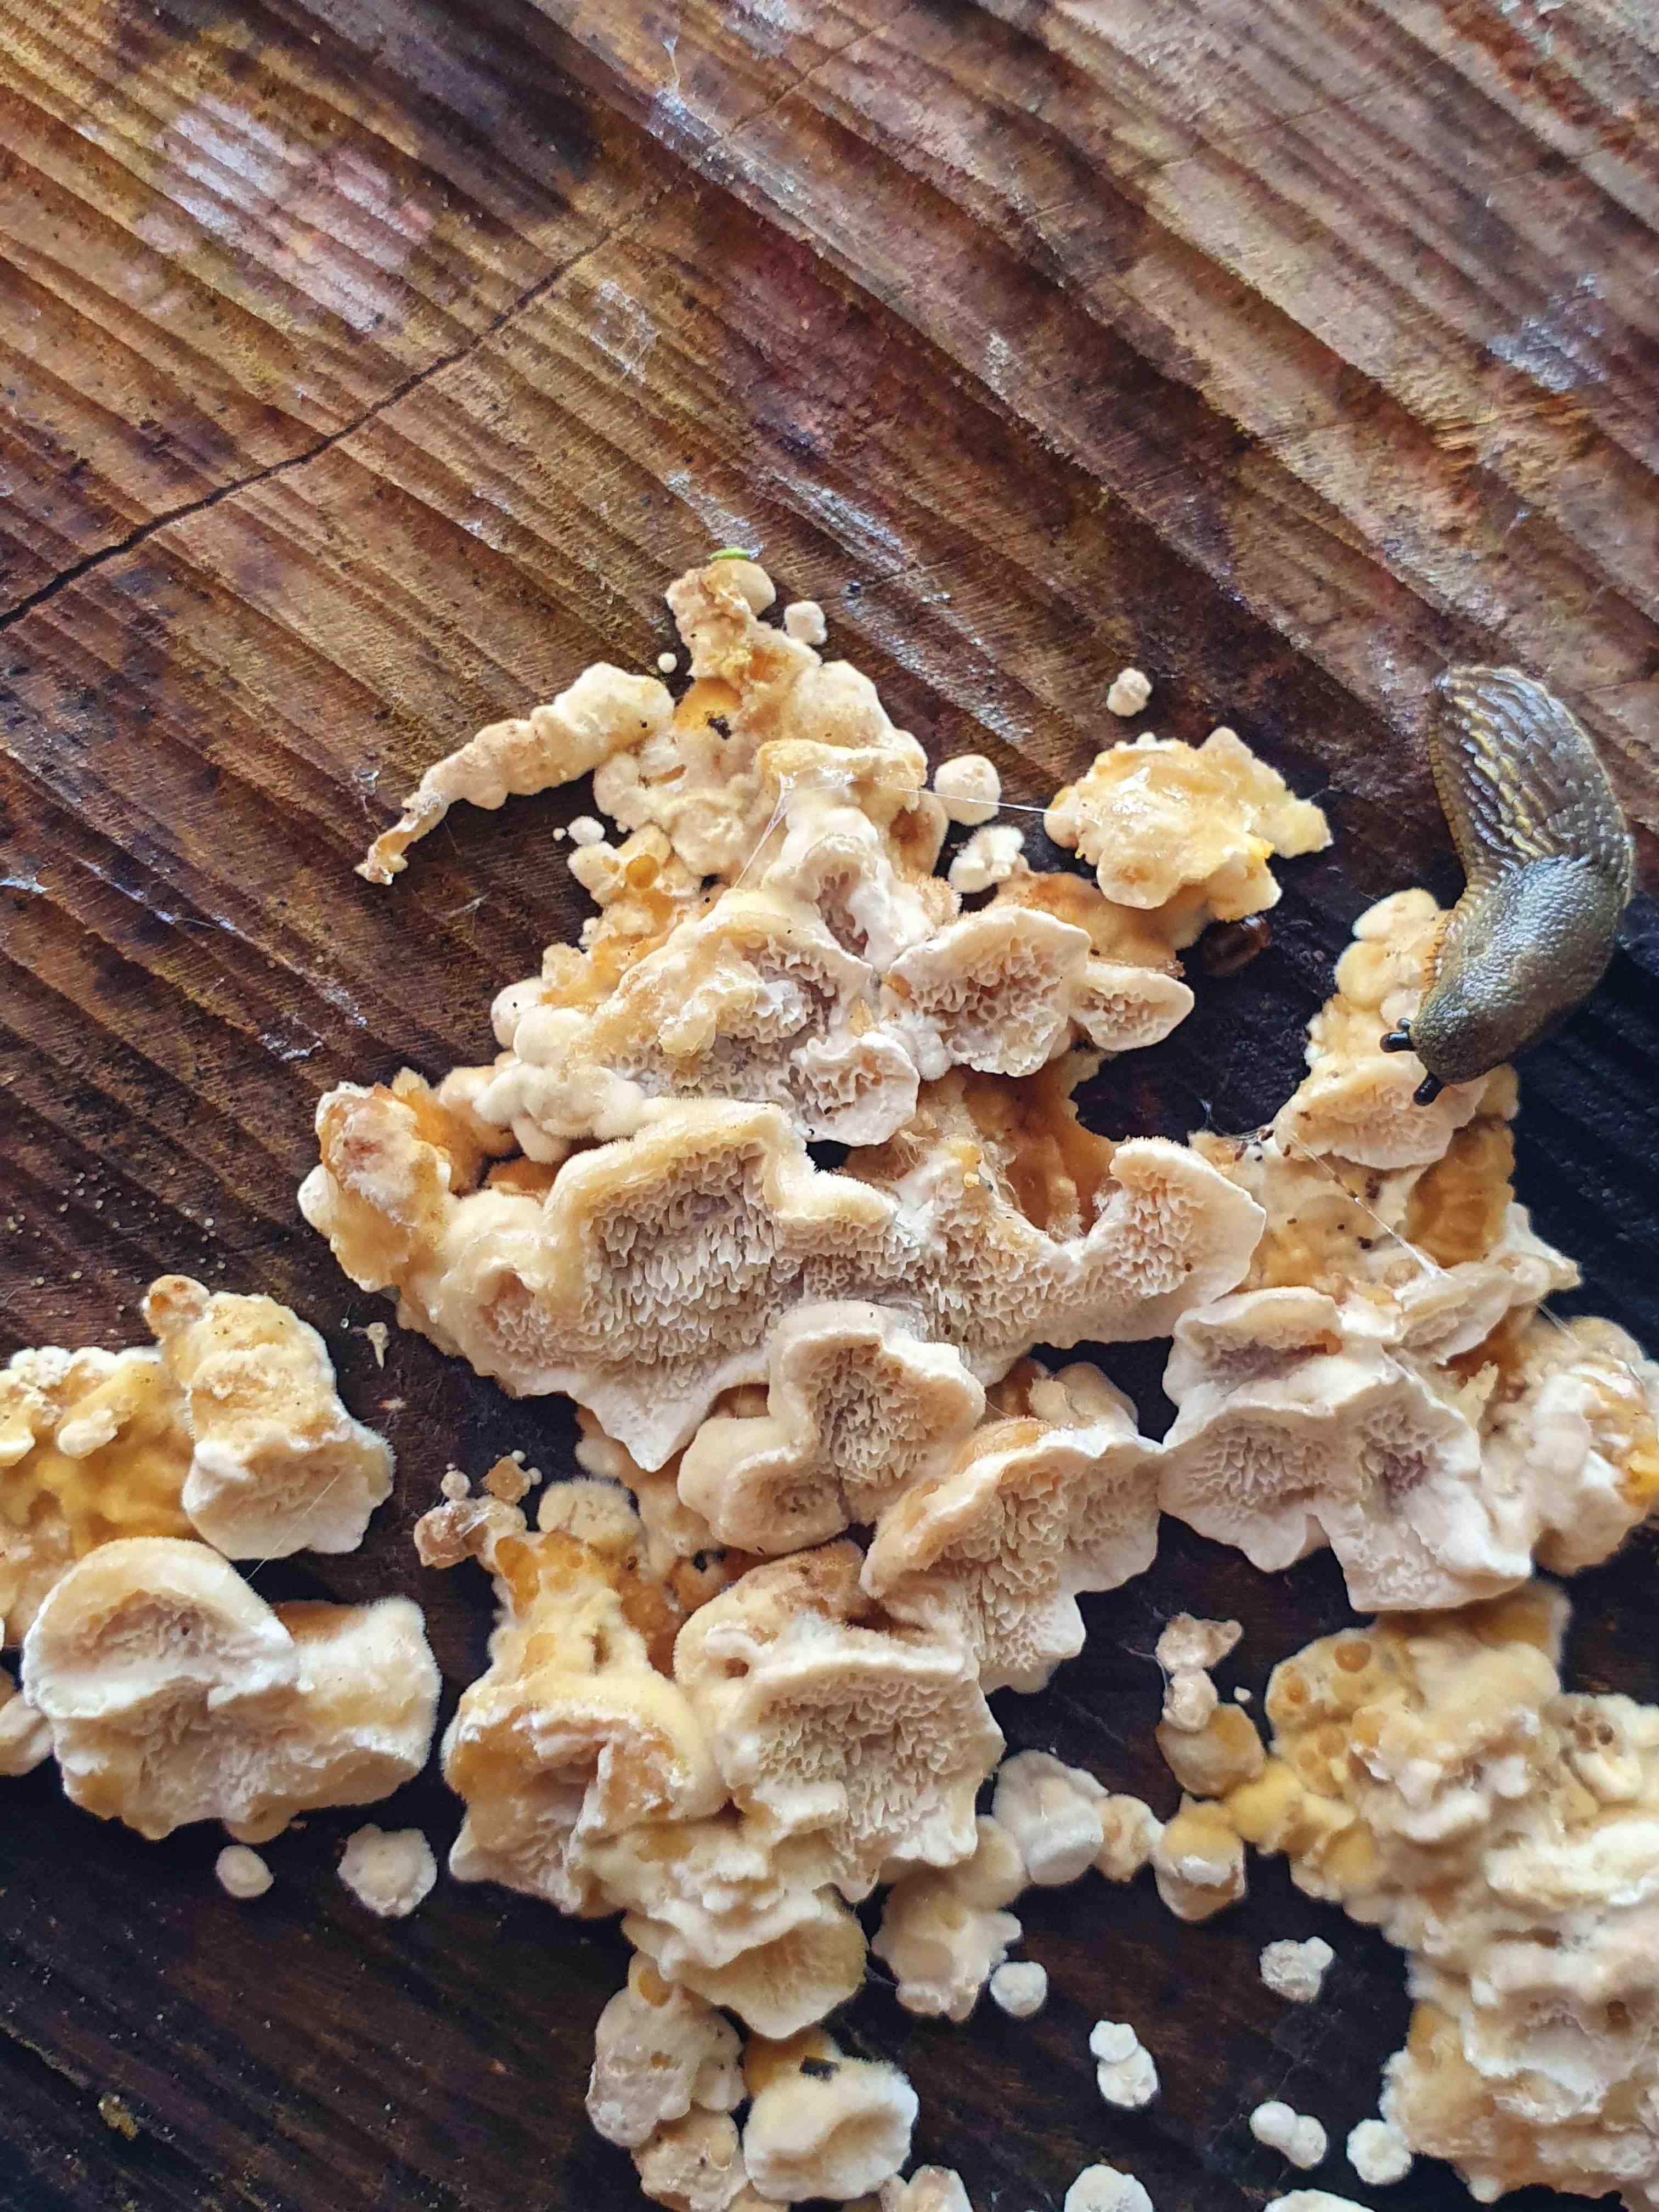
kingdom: Fungi
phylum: Basidiomycota
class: Agaricomycetes
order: Polyporales
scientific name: Polyporales
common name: poresvampordenen
